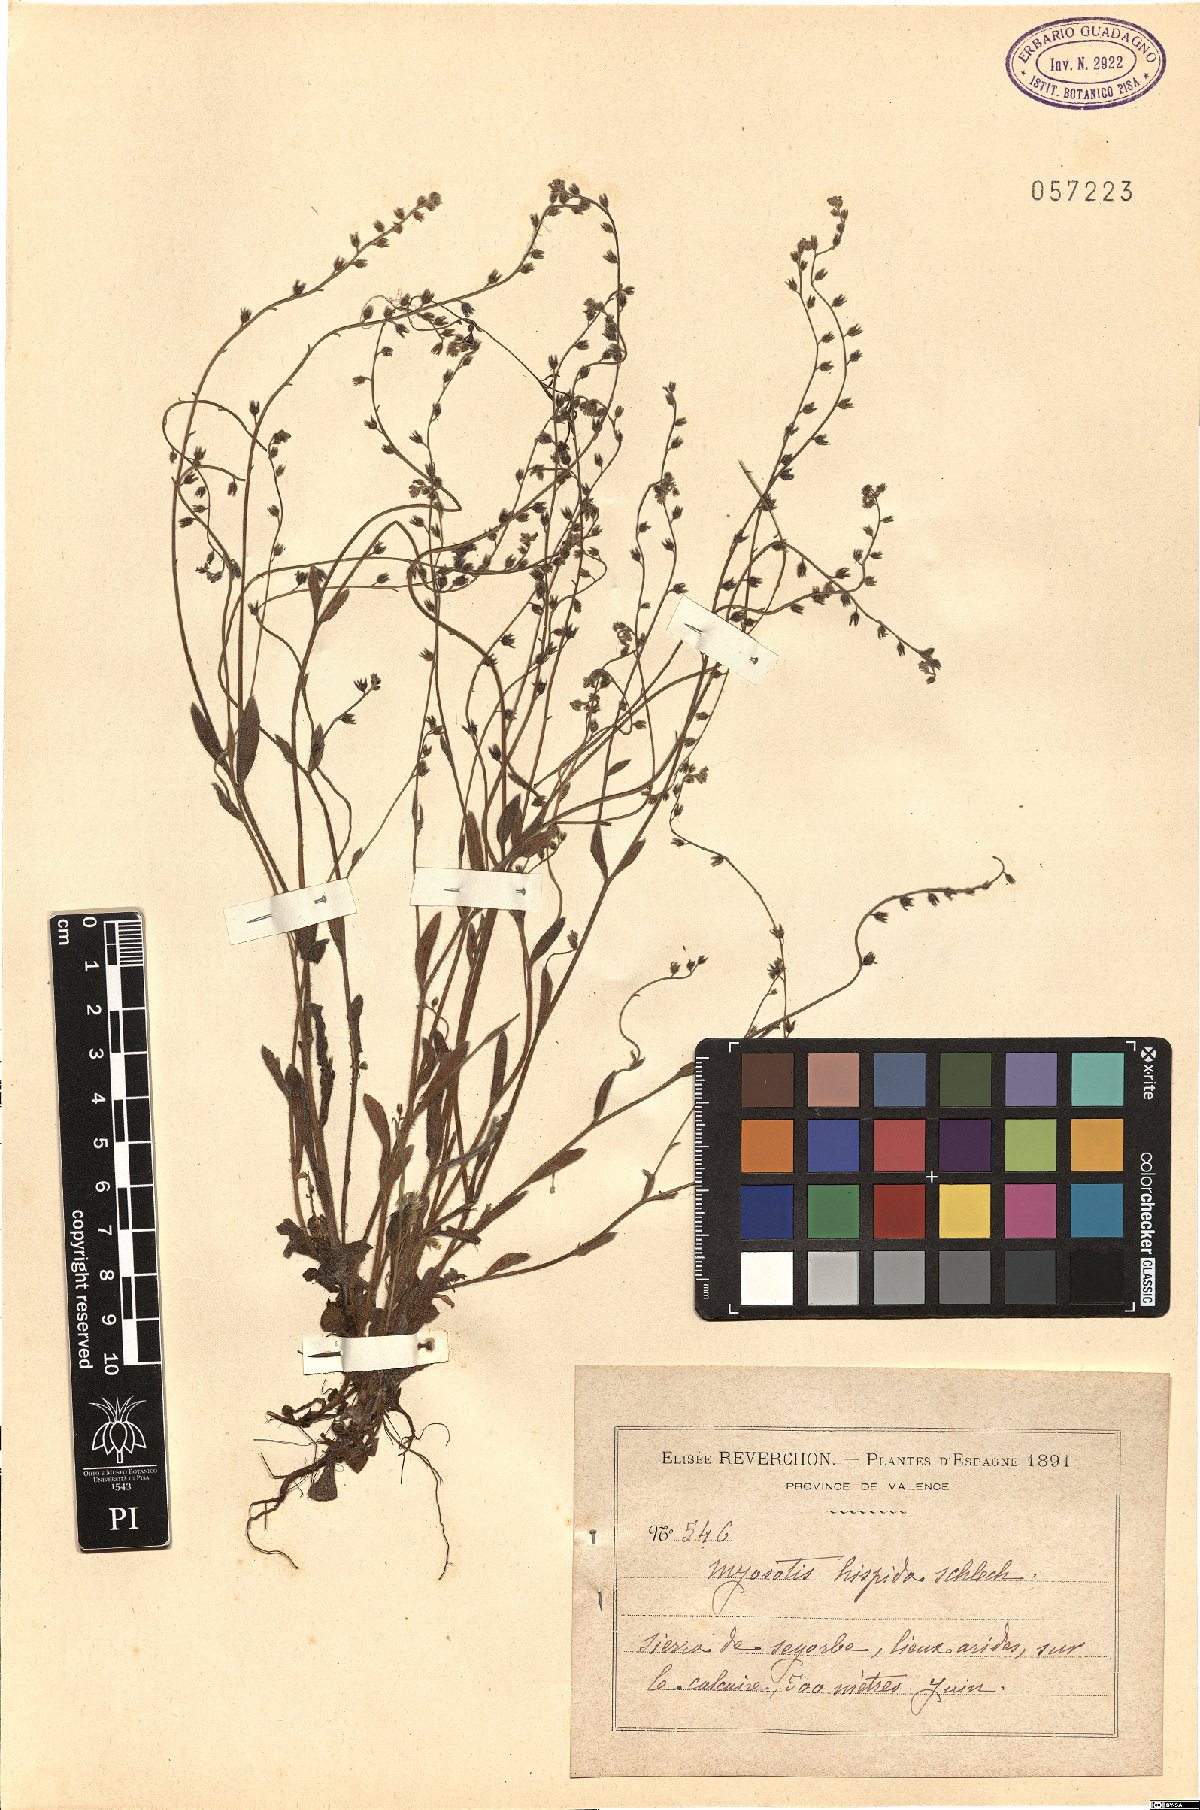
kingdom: Plantae
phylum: Tracheophyta
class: Magnoliopsida
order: Boraginales
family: Boraginaceae
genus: Myosotis
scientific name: Myosotis ramosissima
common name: Early forget-me-not
